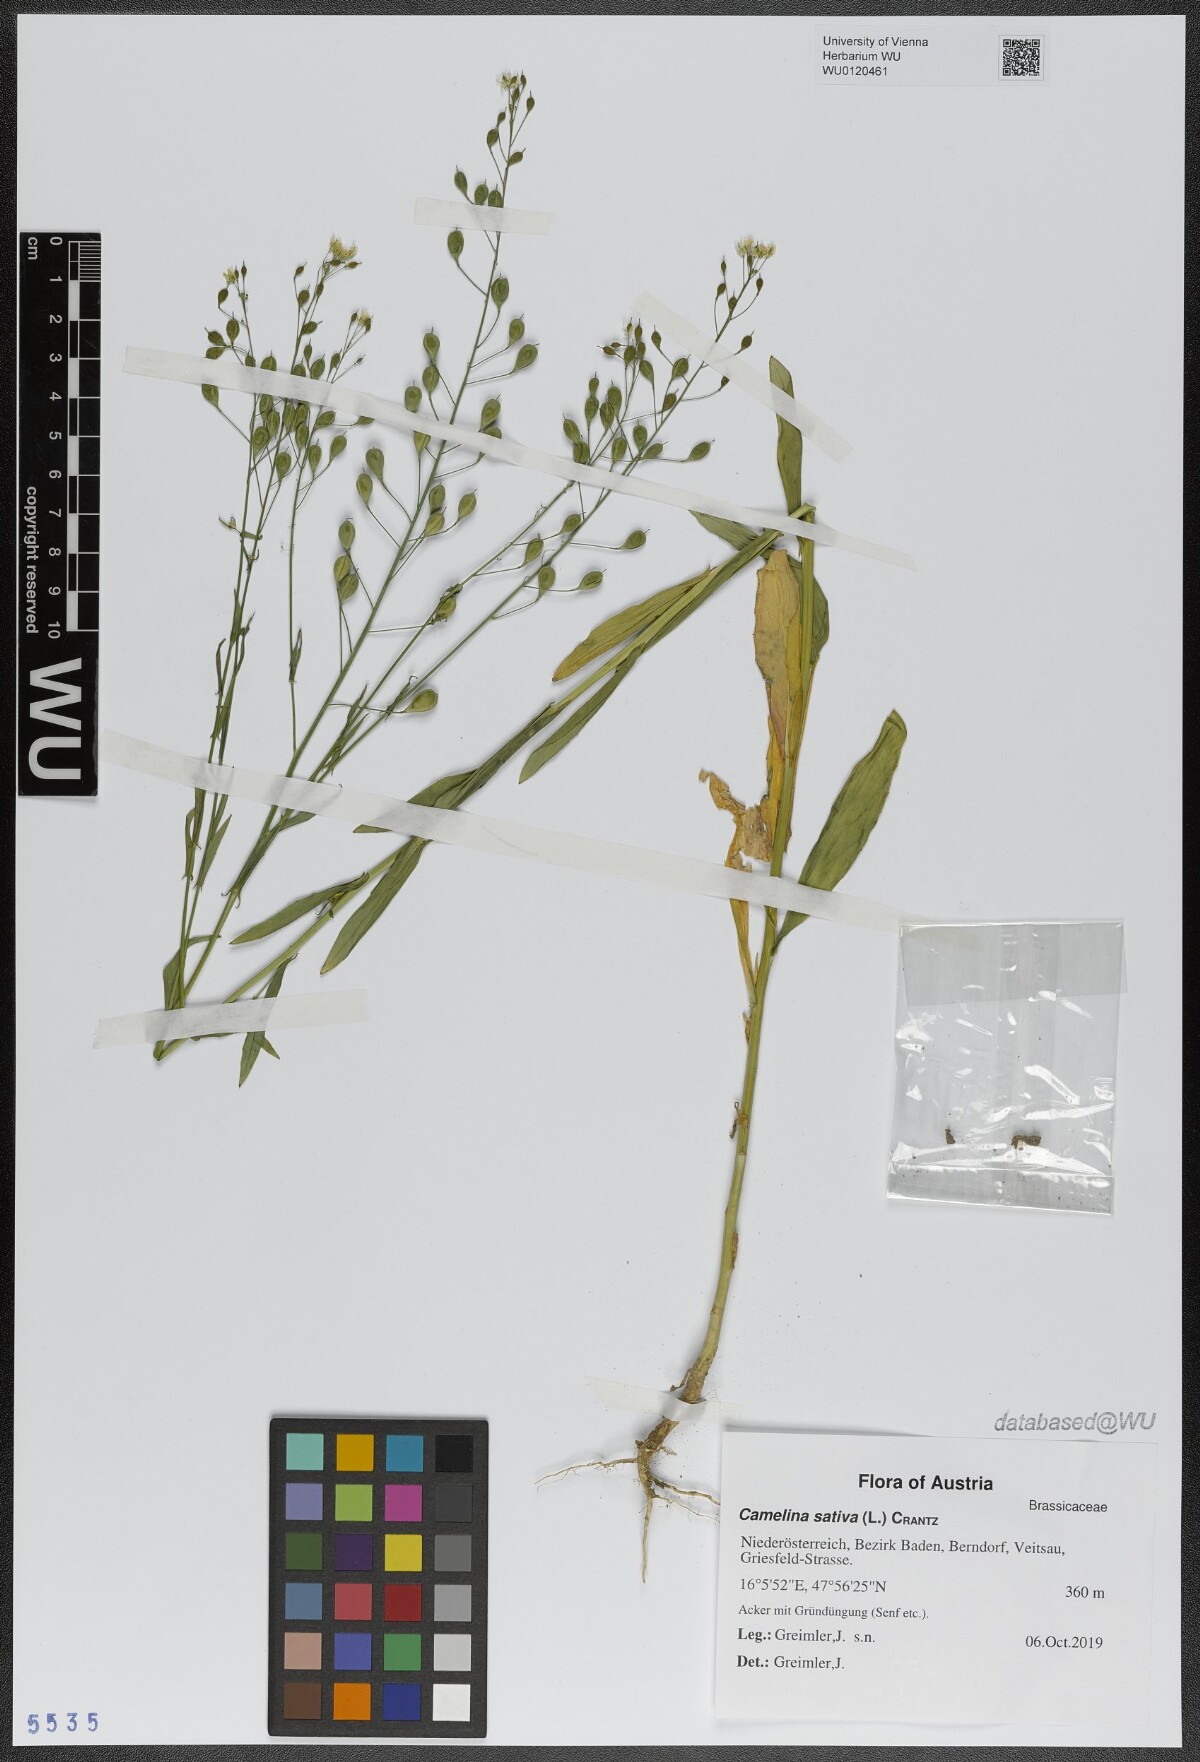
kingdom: Plantae
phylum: Tracheophyta
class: Magnoliopsida
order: Brassicales
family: Brassicaceae
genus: Camelina
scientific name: Camelina sativa
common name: Gold-of-pleasure
